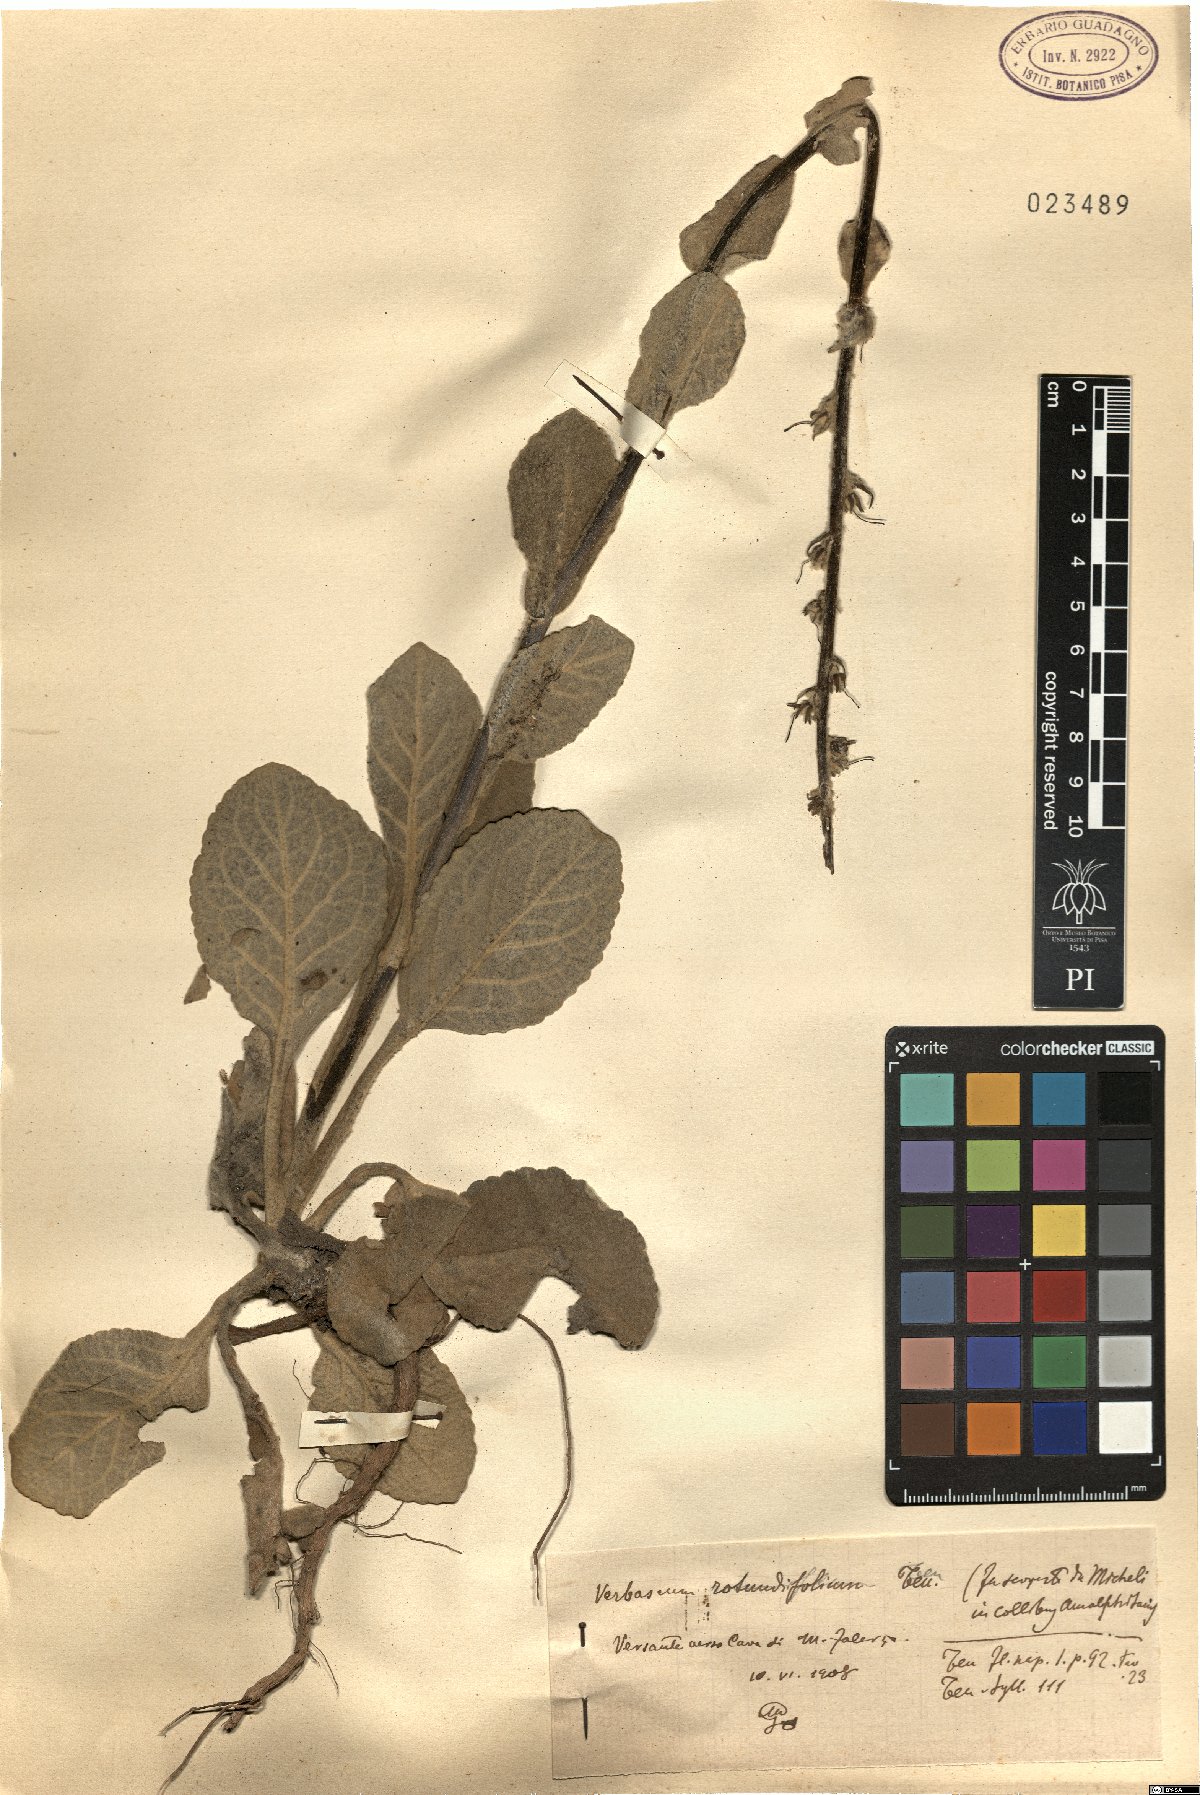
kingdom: Plantae
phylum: Tracheophyta
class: Magnoliopsida
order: Lamiales
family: Scrophulariaceae
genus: Verbascum
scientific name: Verbascum rotundifolium
